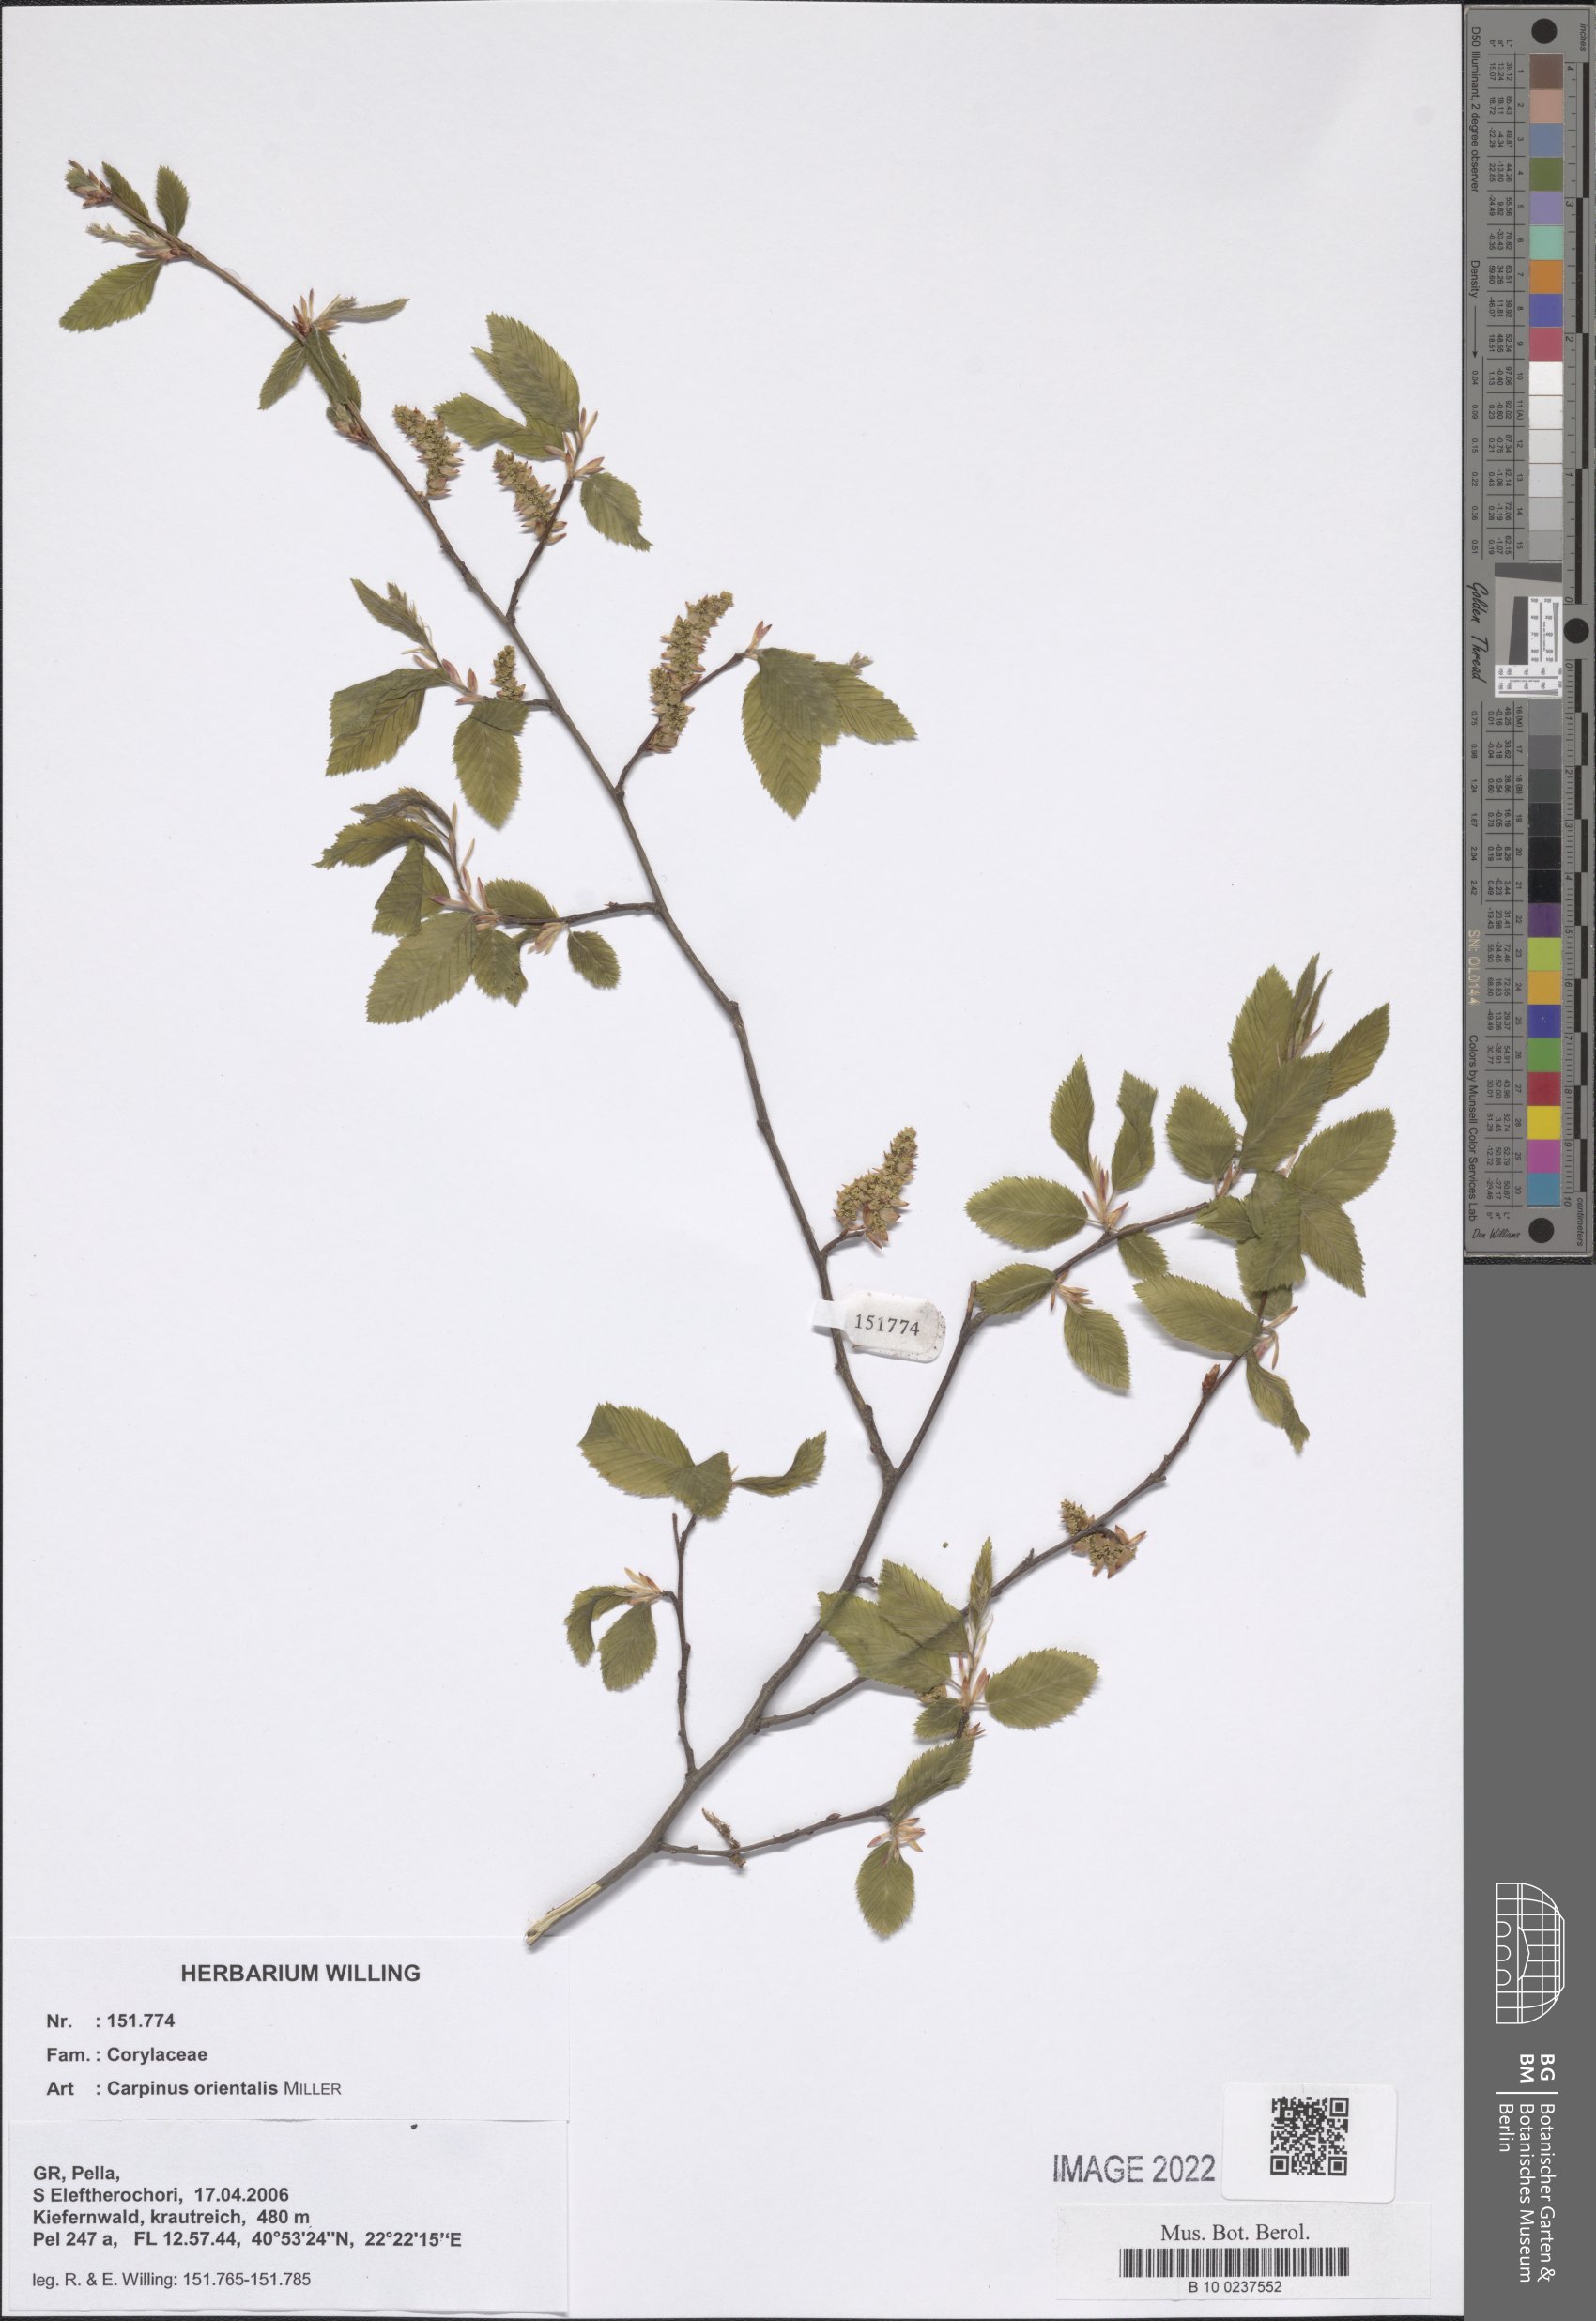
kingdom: Plantae
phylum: Tracheophyta
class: Magnoliopsida
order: Fagales
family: Betulaceae
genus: Carpinus
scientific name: Carpinus orientalis
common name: Eastern hornbeam
